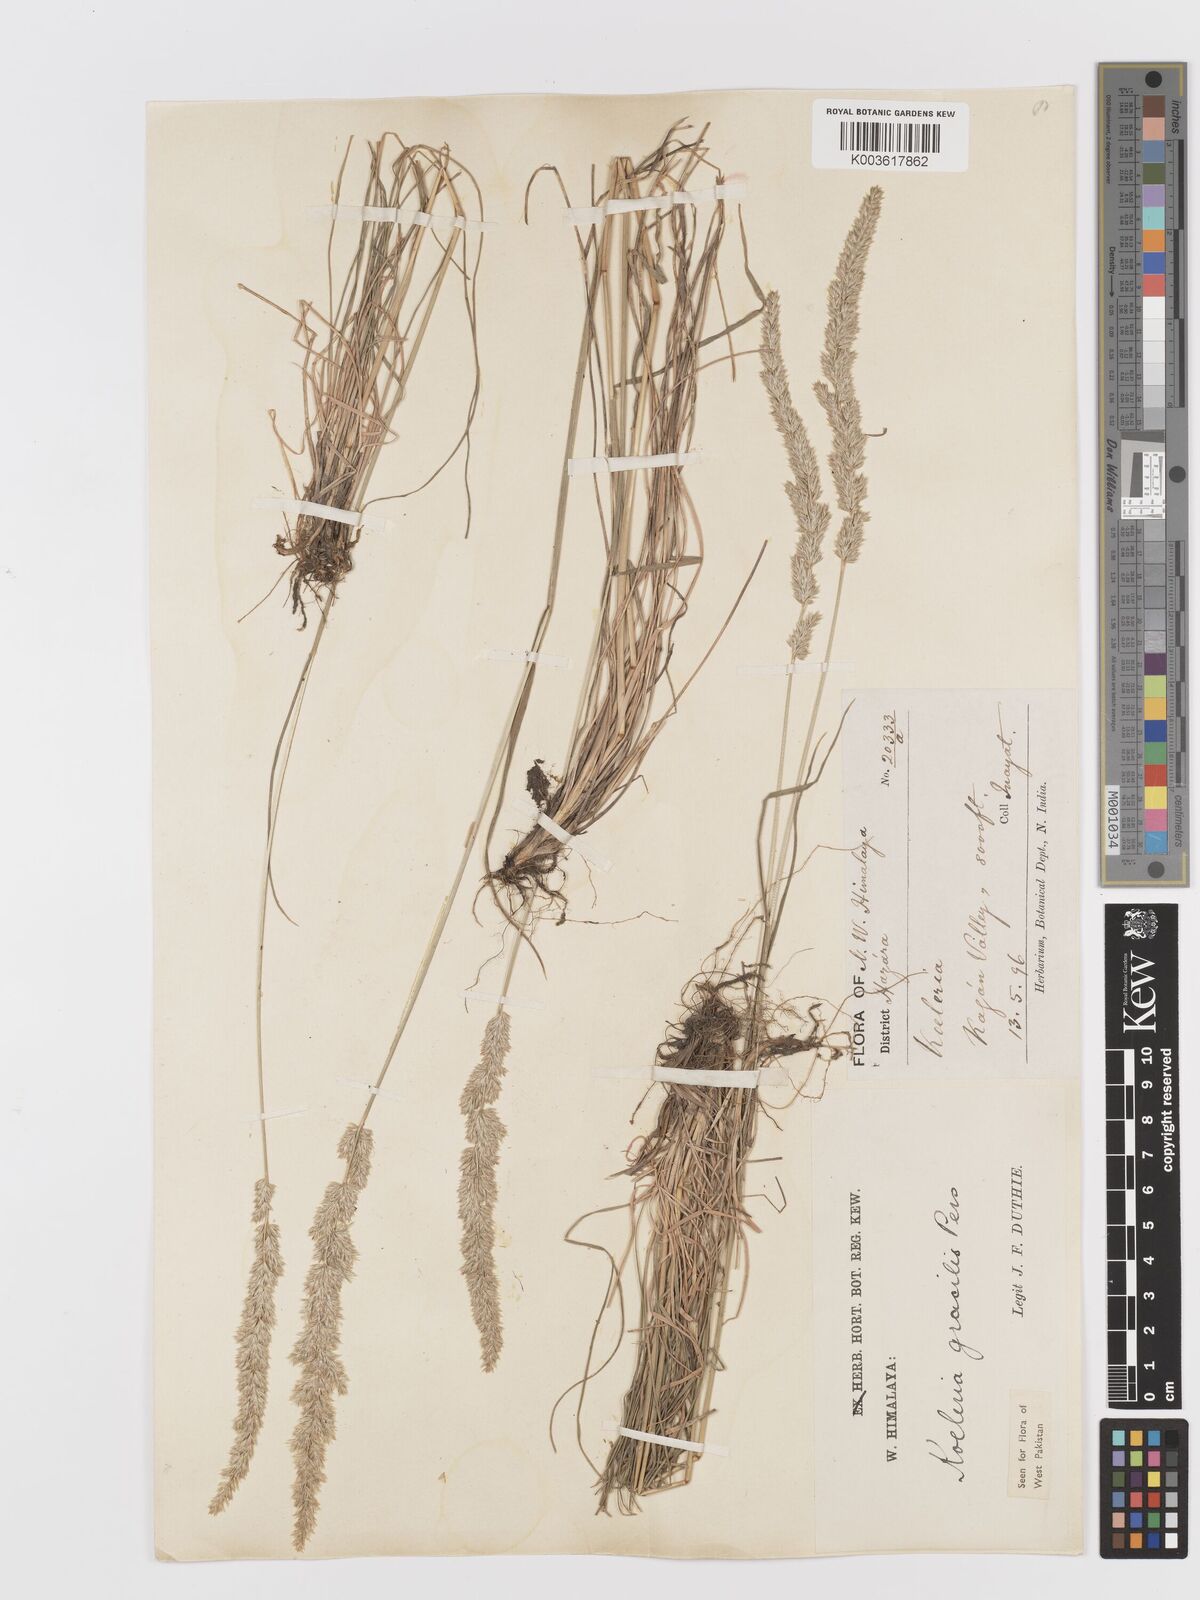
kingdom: Plantae
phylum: Tracheophyta
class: Liliopsida
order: Poales
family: Poaceae
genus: Koeleria
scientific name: Koeleria macrantha
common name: Crested hair-grass
